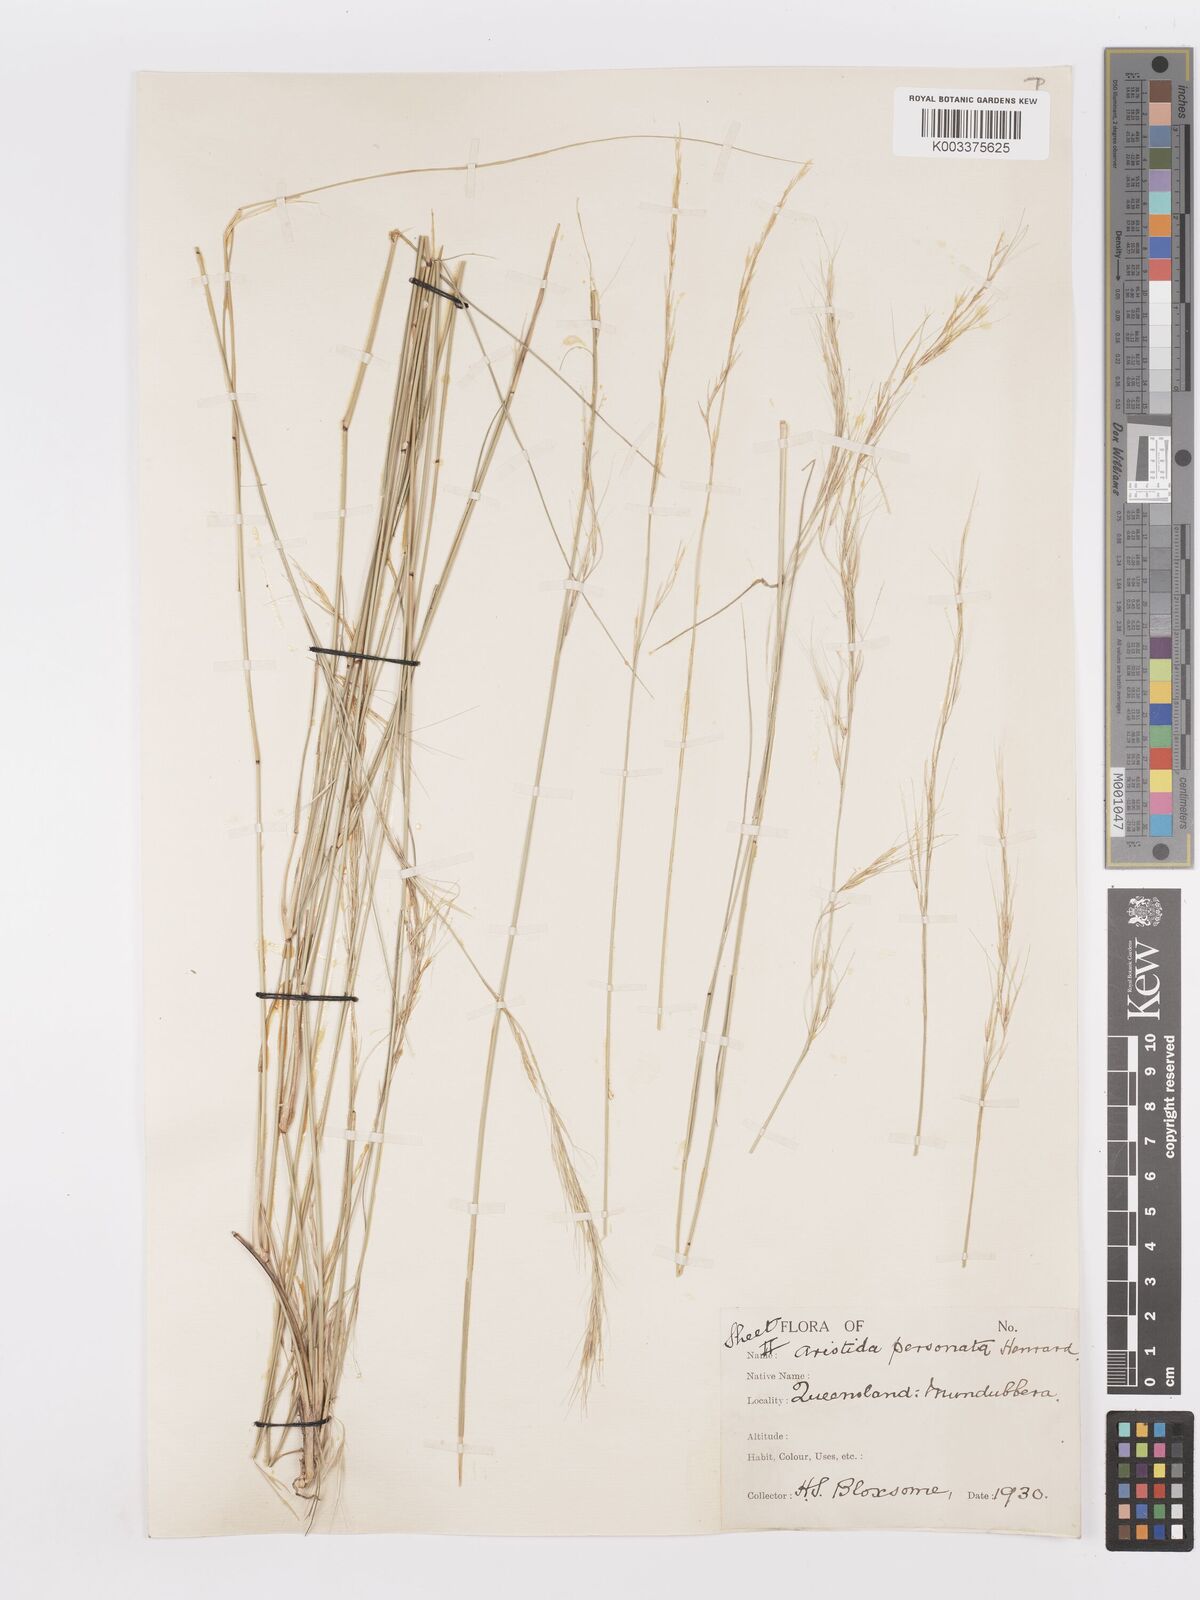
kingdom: Plantae
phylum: Tracheophyta
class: Liliopsida
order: Poales
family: Poaceae
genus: Aristida
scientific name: Aristida personata
